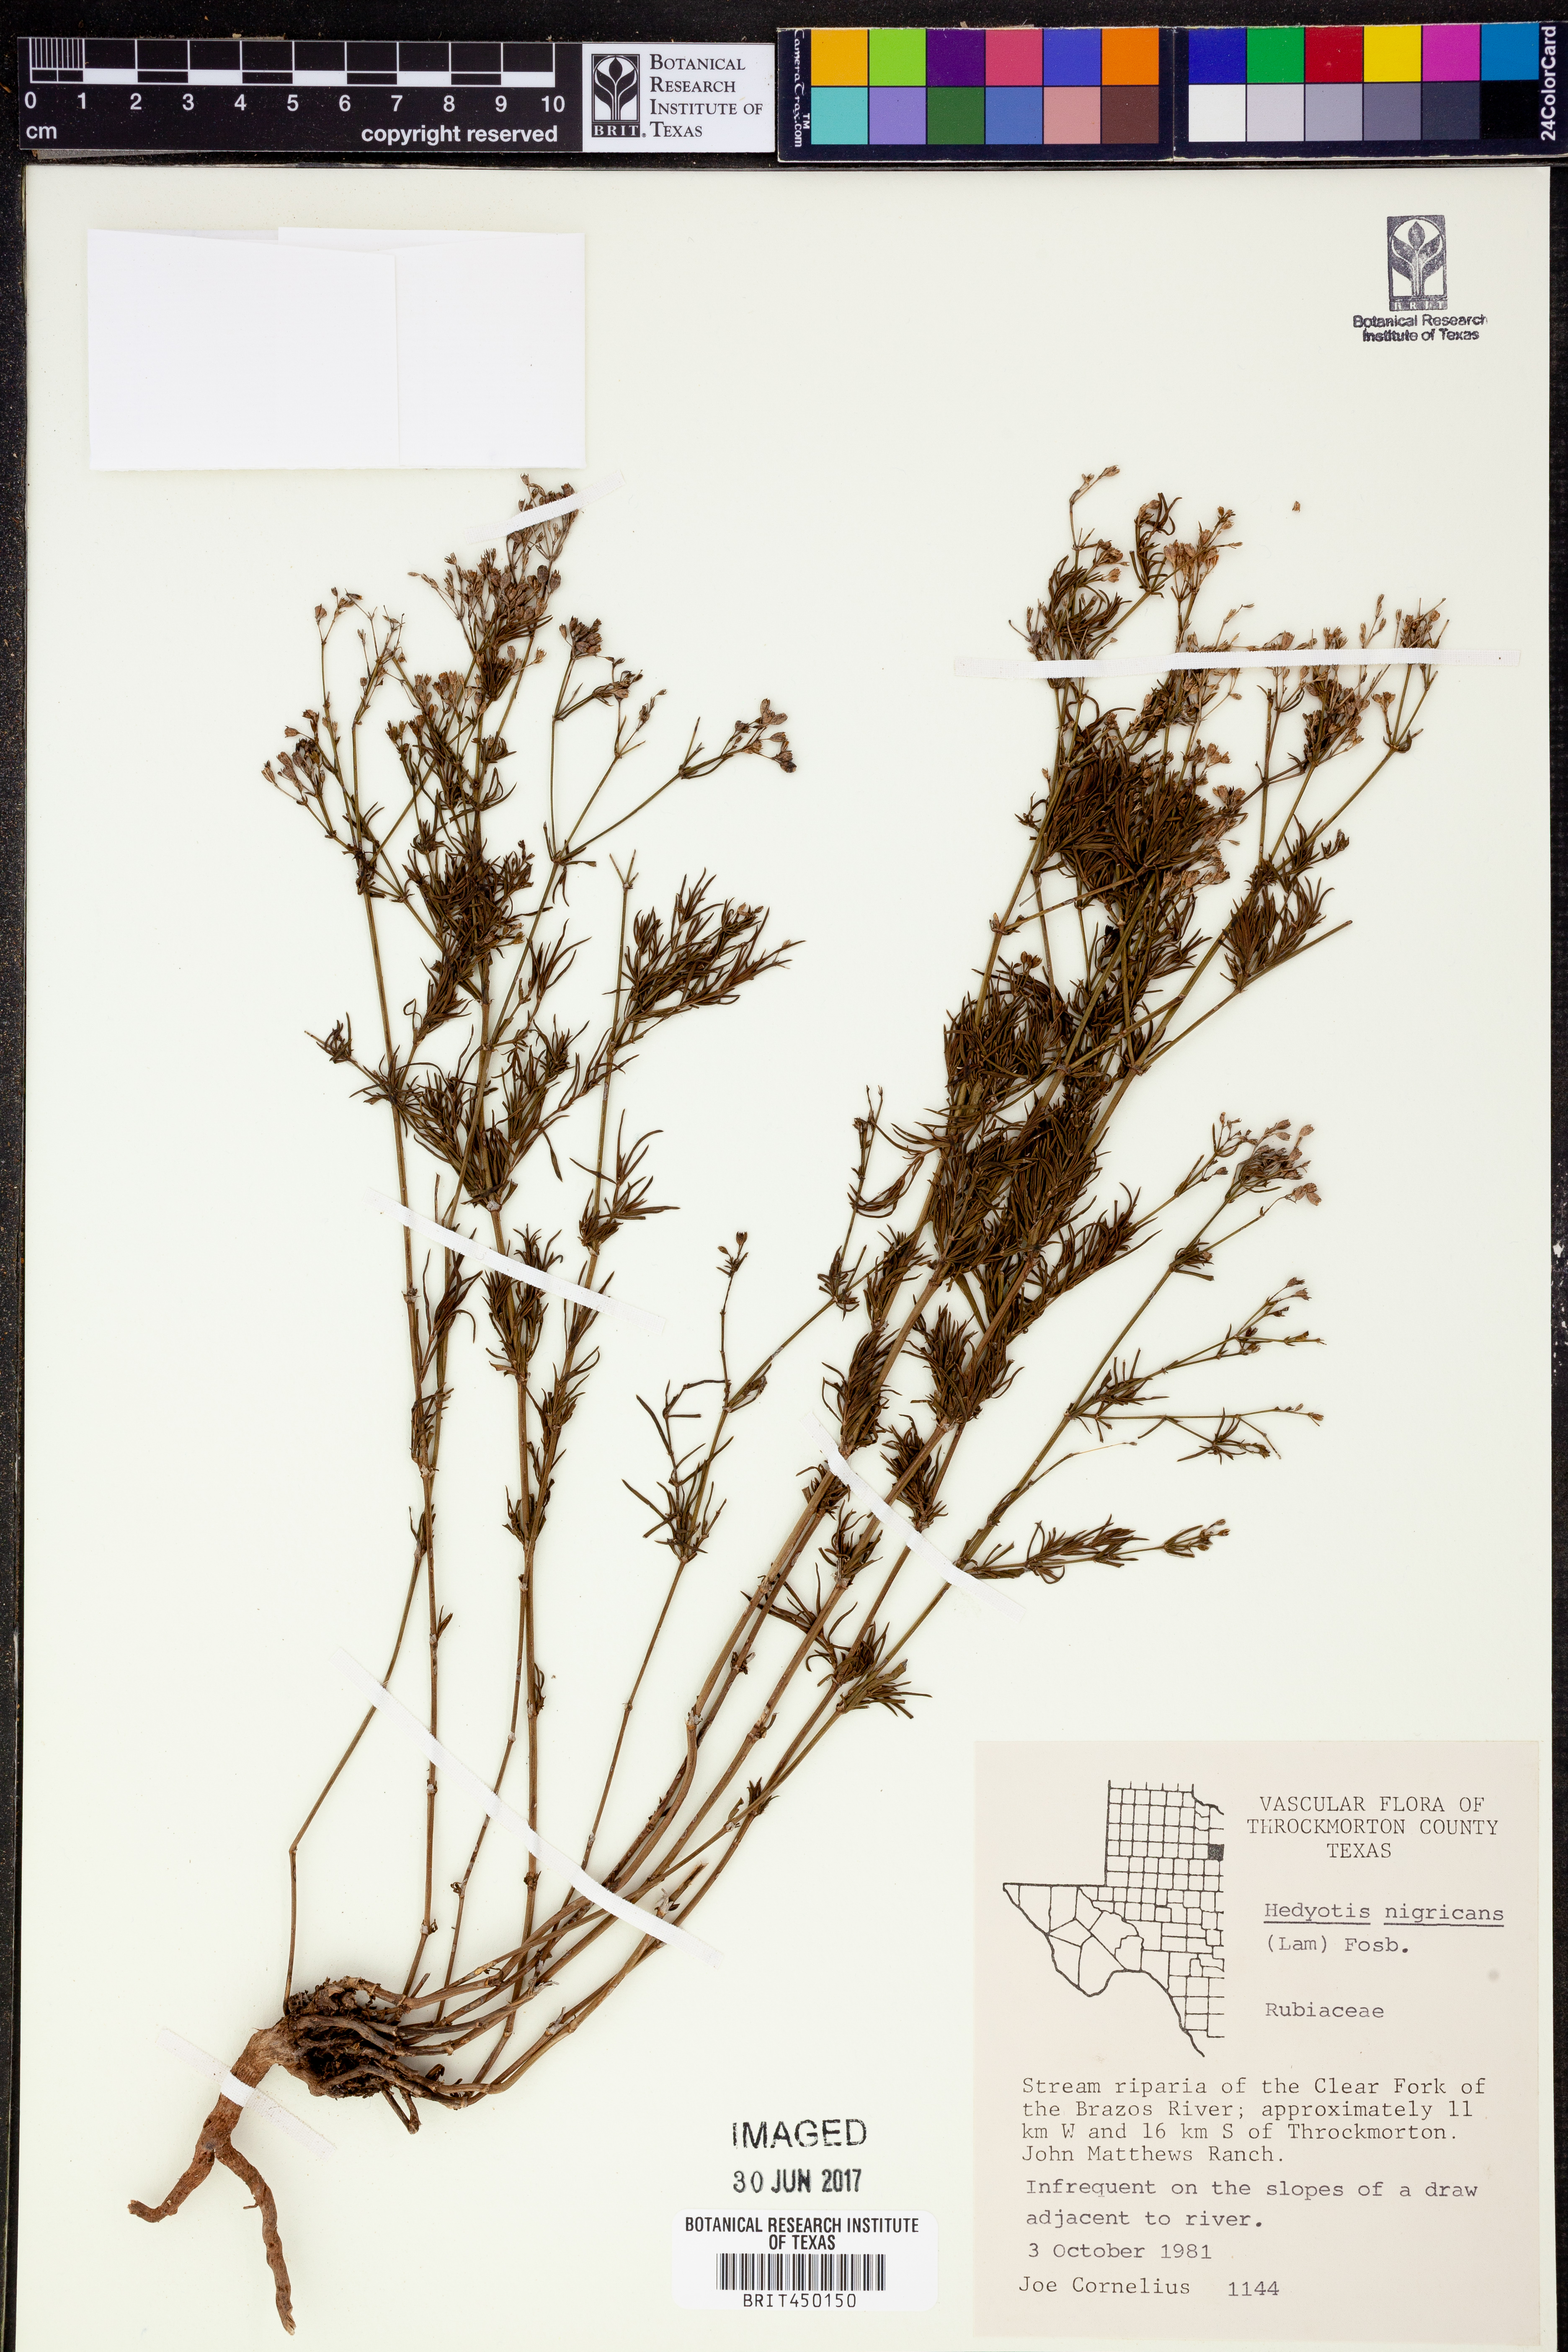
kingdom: Plantae
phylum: Tracheophyta
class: Magnoliopsida
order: Gentianales
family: Rubiaceae
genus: Stenaria
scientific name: Stenaria nigricans
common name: Diamondflowers
